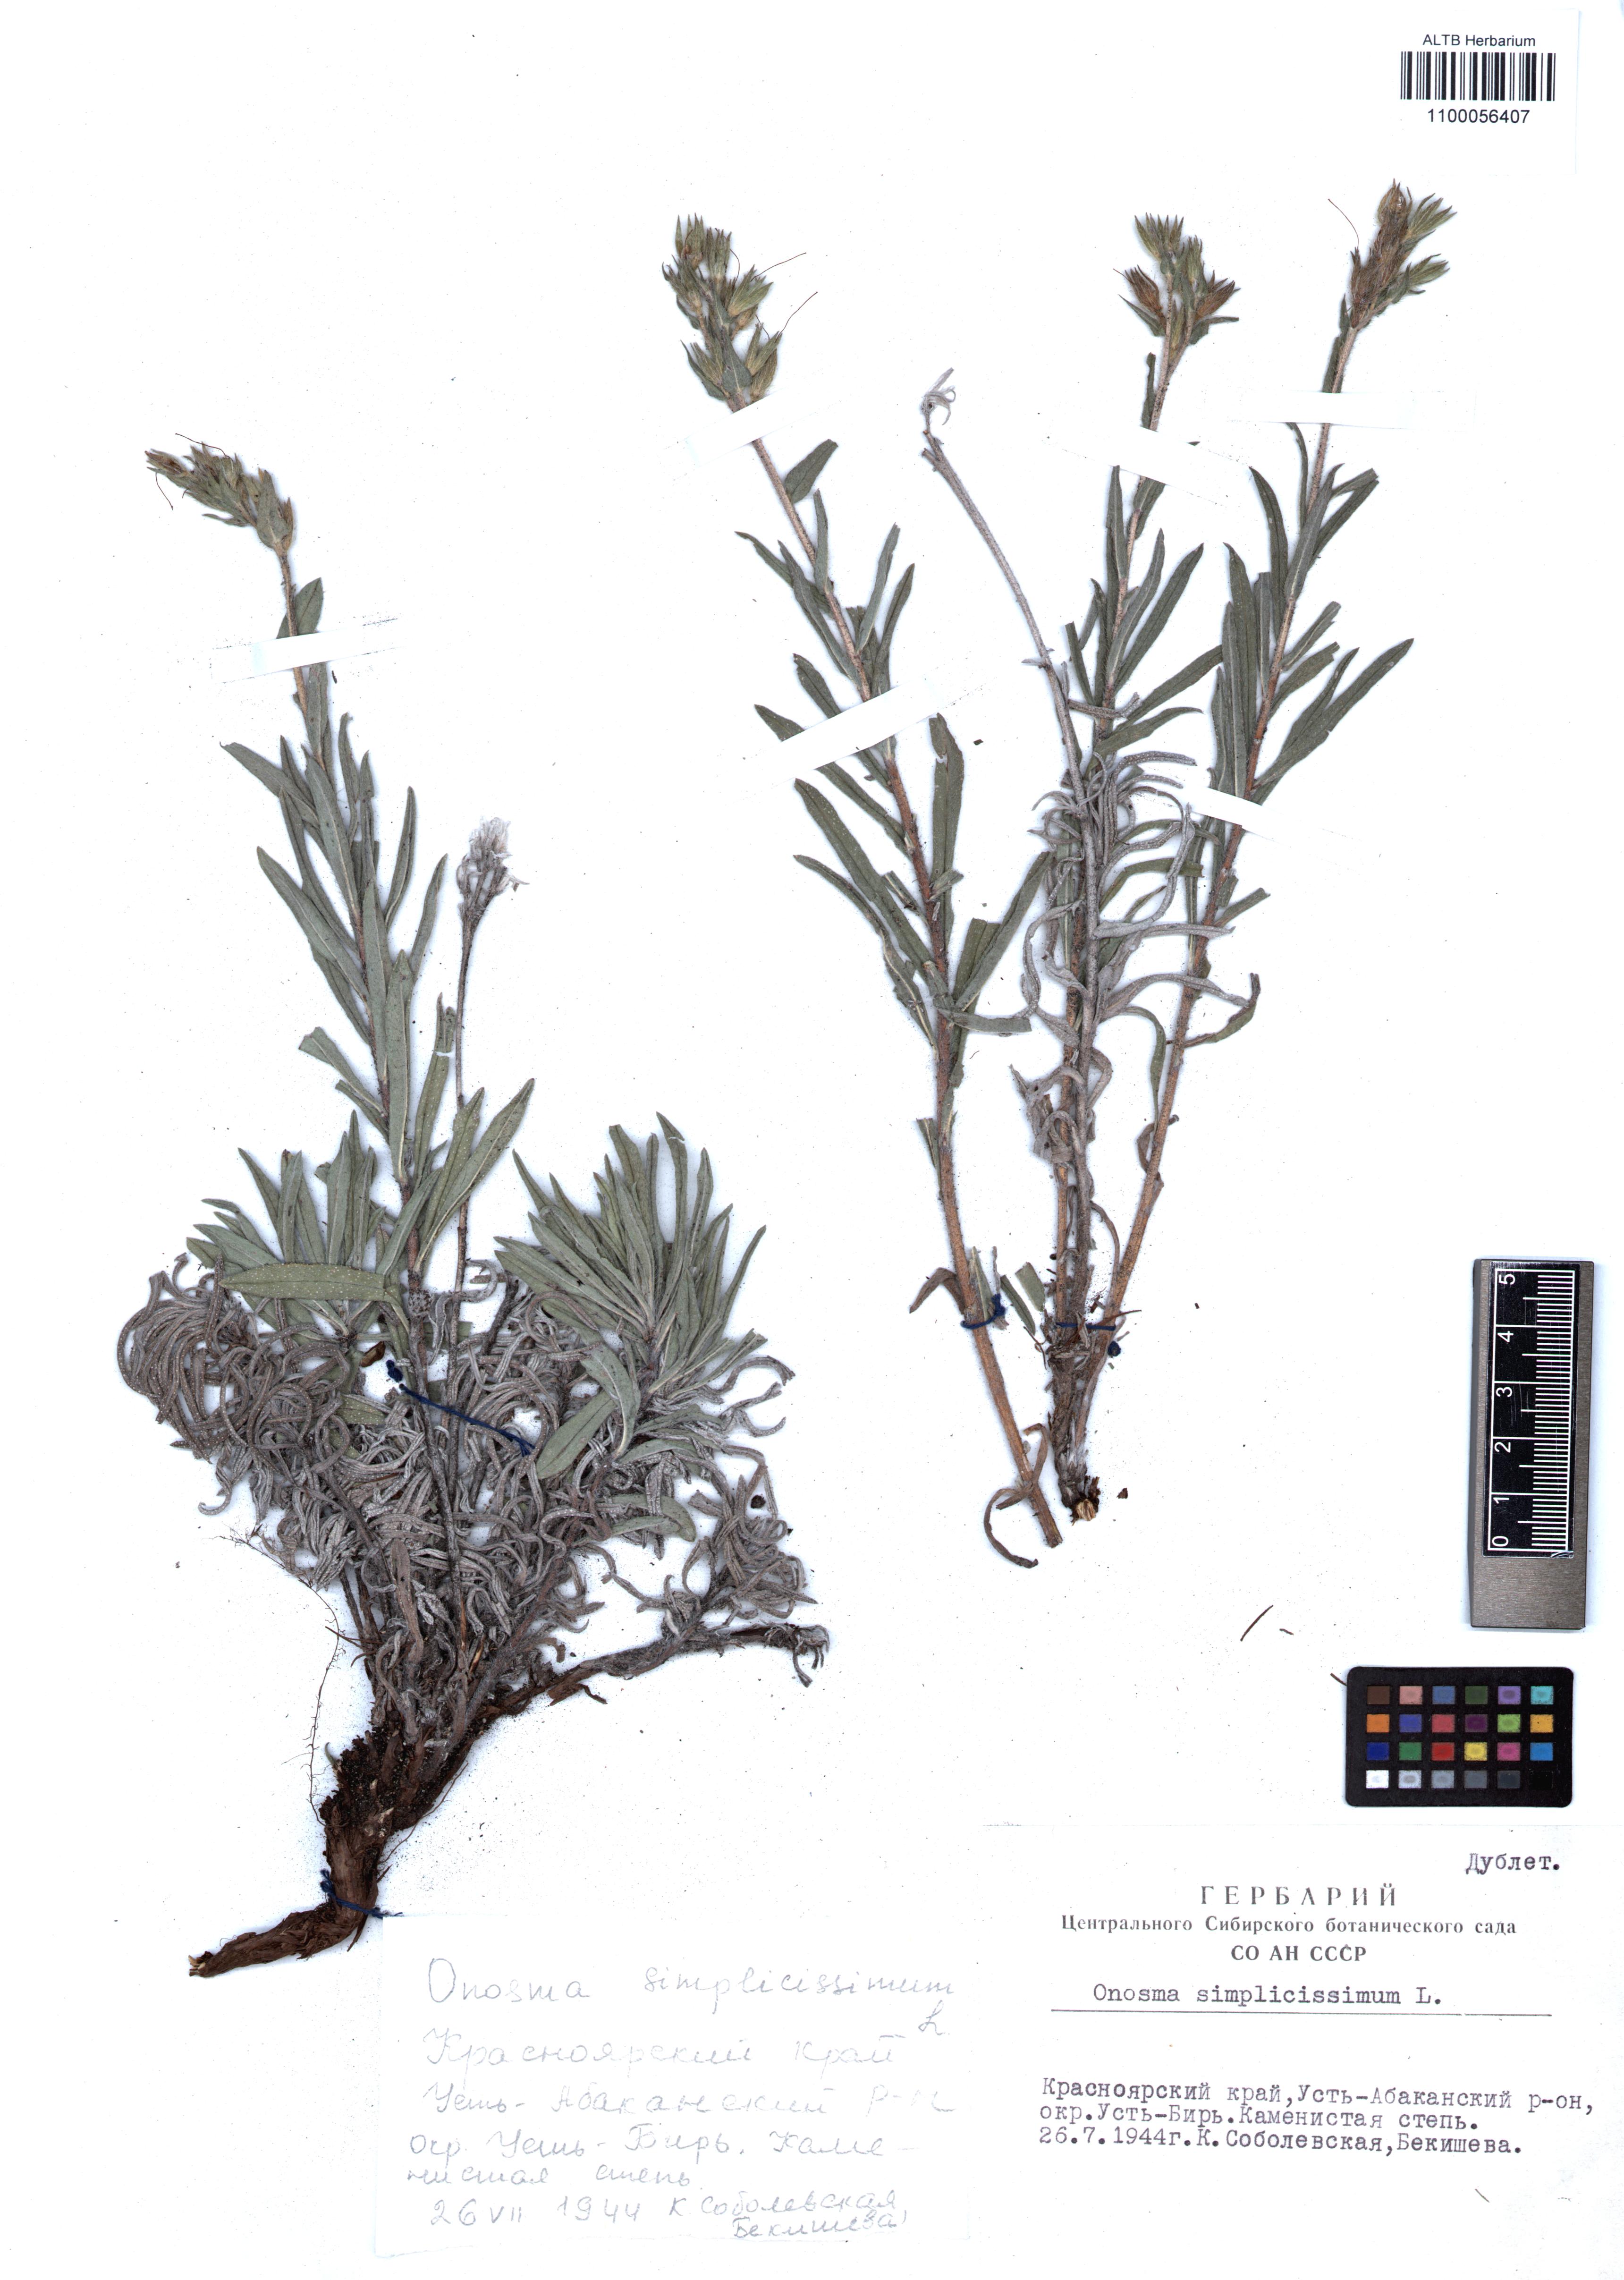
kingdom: Plantae
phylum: Tracheophyta
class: Magnoliopsida
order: Boraginales
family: Boraginaceae
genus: Onosma
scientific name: Onosma simplicissima
